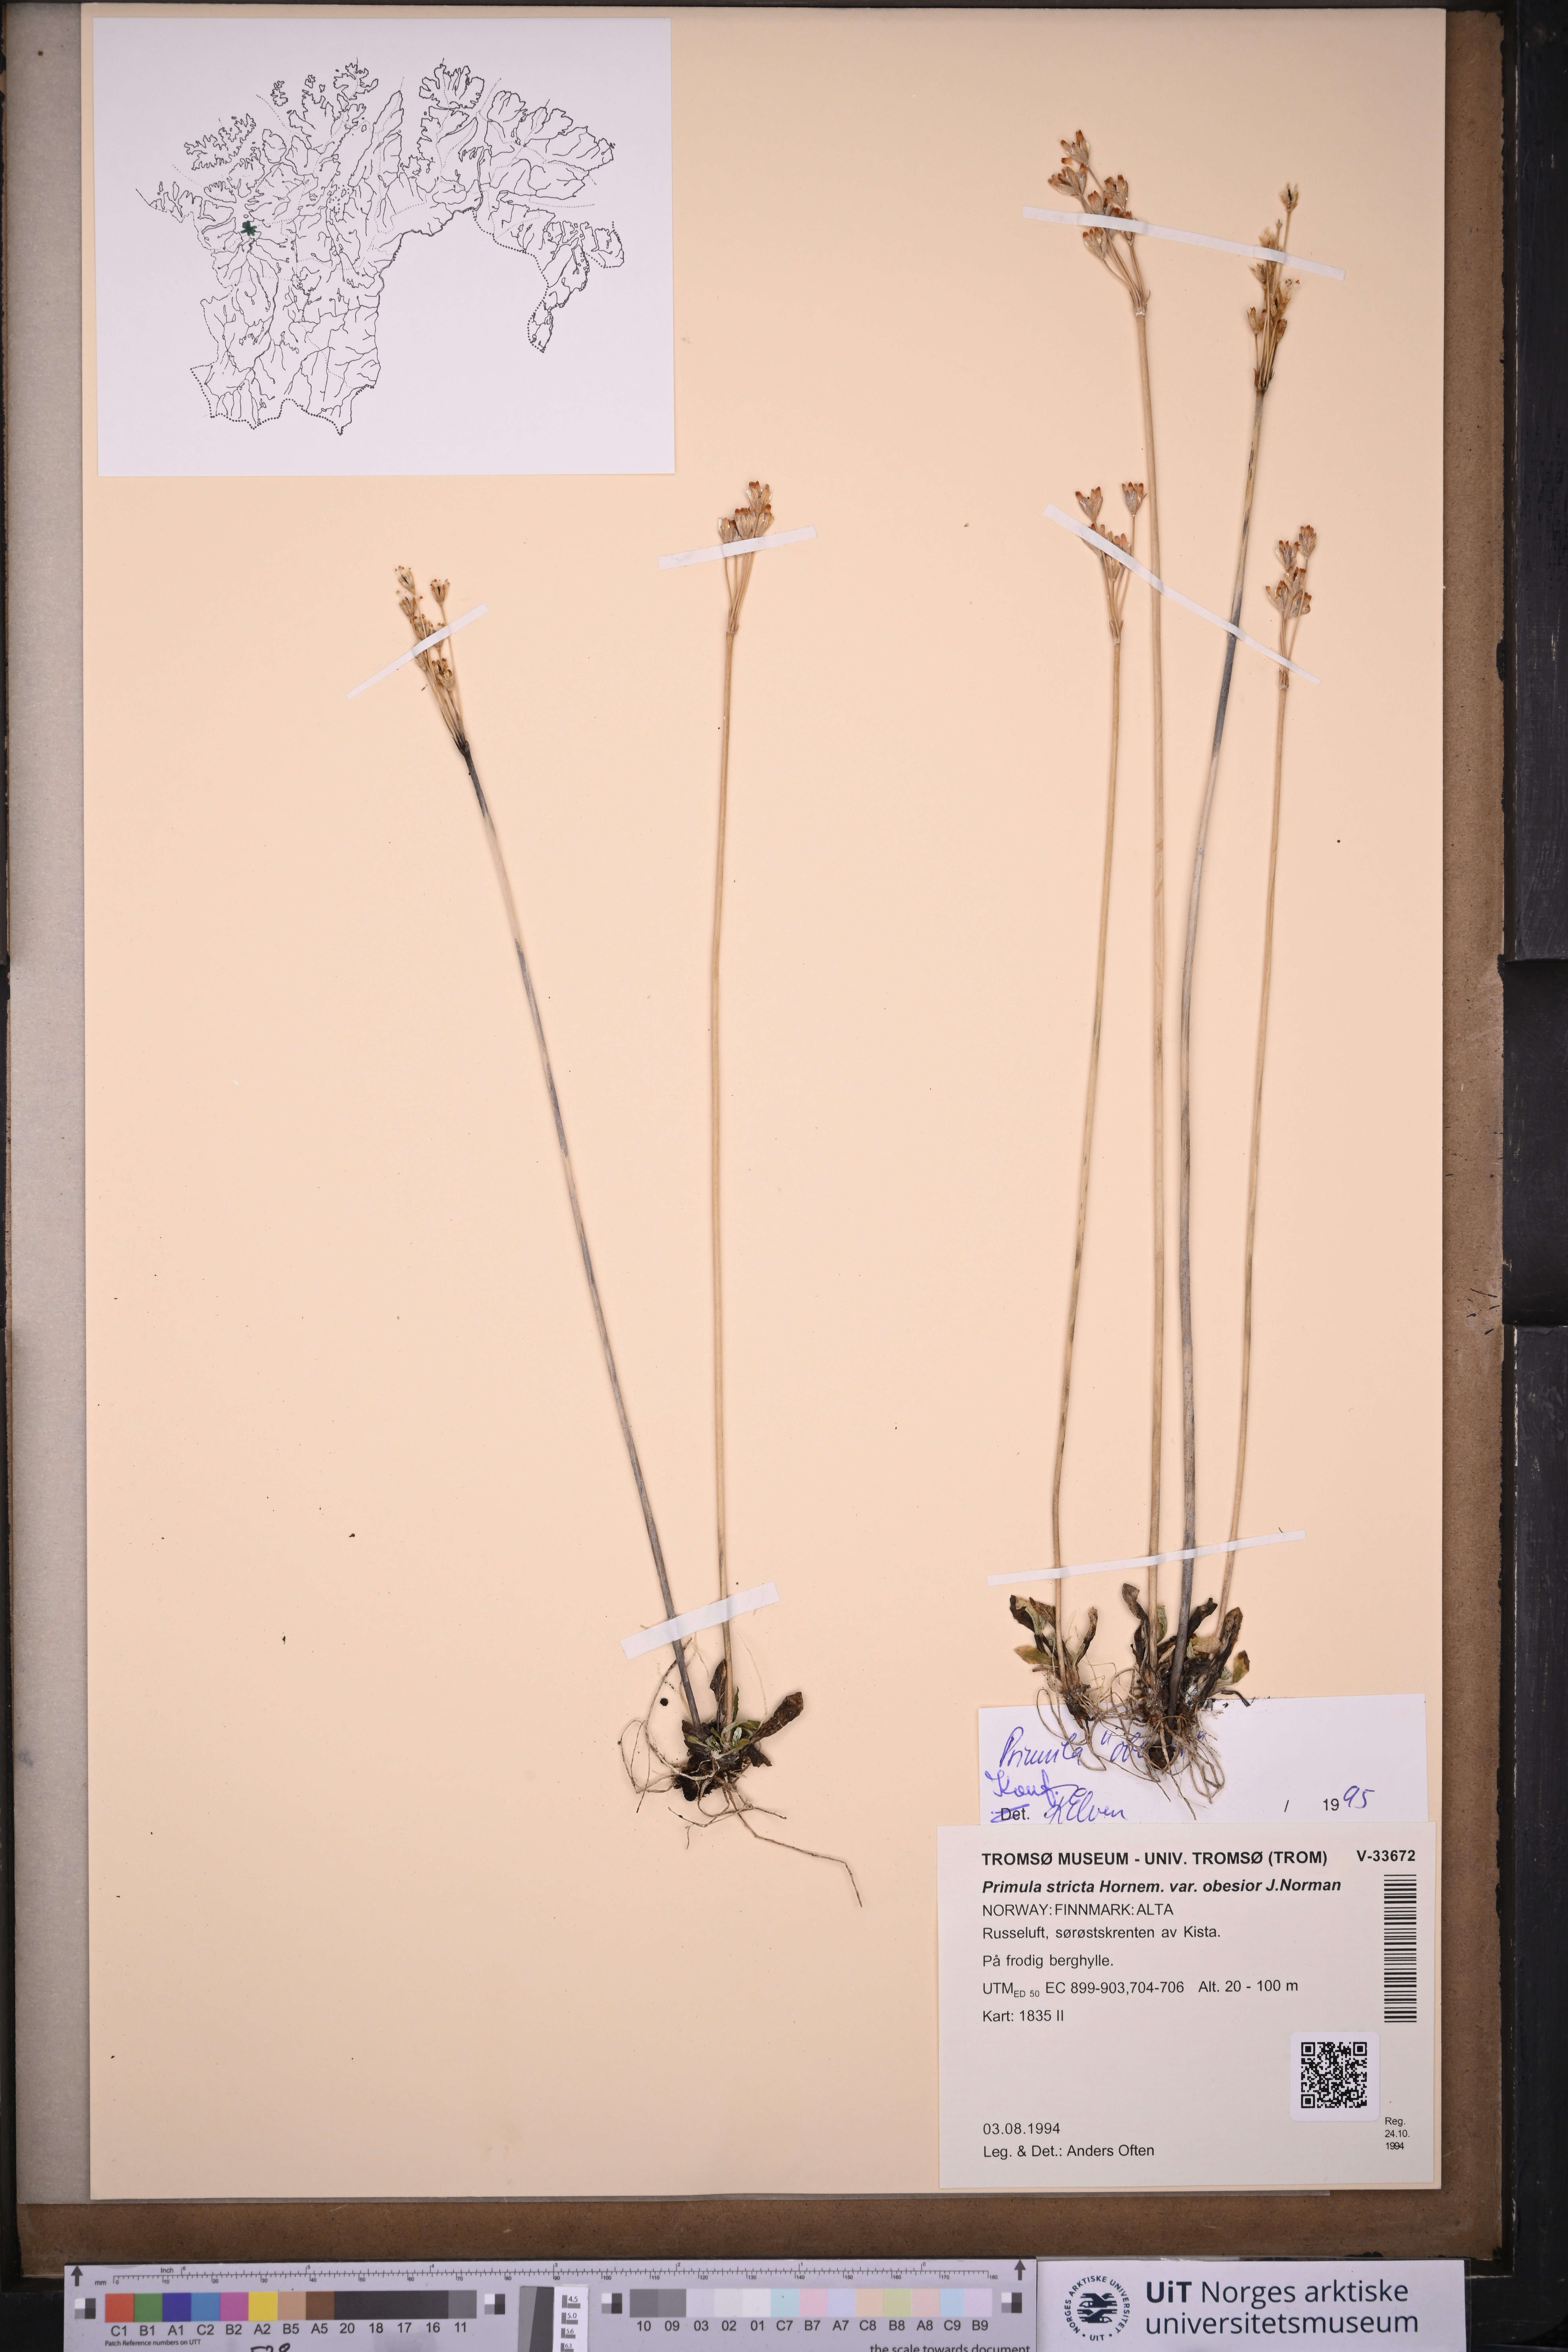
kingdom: Plantae
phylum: Tracheophyta
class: Magnoliopsida
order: Ericales
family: Primulaceae
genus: Primula
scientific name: Primula stricta
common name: Coastal primrose
